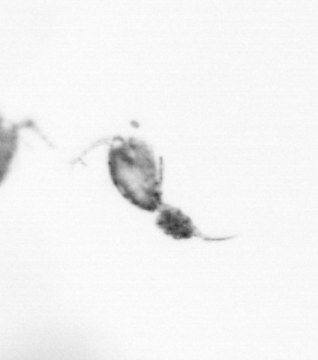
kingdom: Animalia
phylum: Arthropoda
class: Copepoda
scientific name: Copepoda
